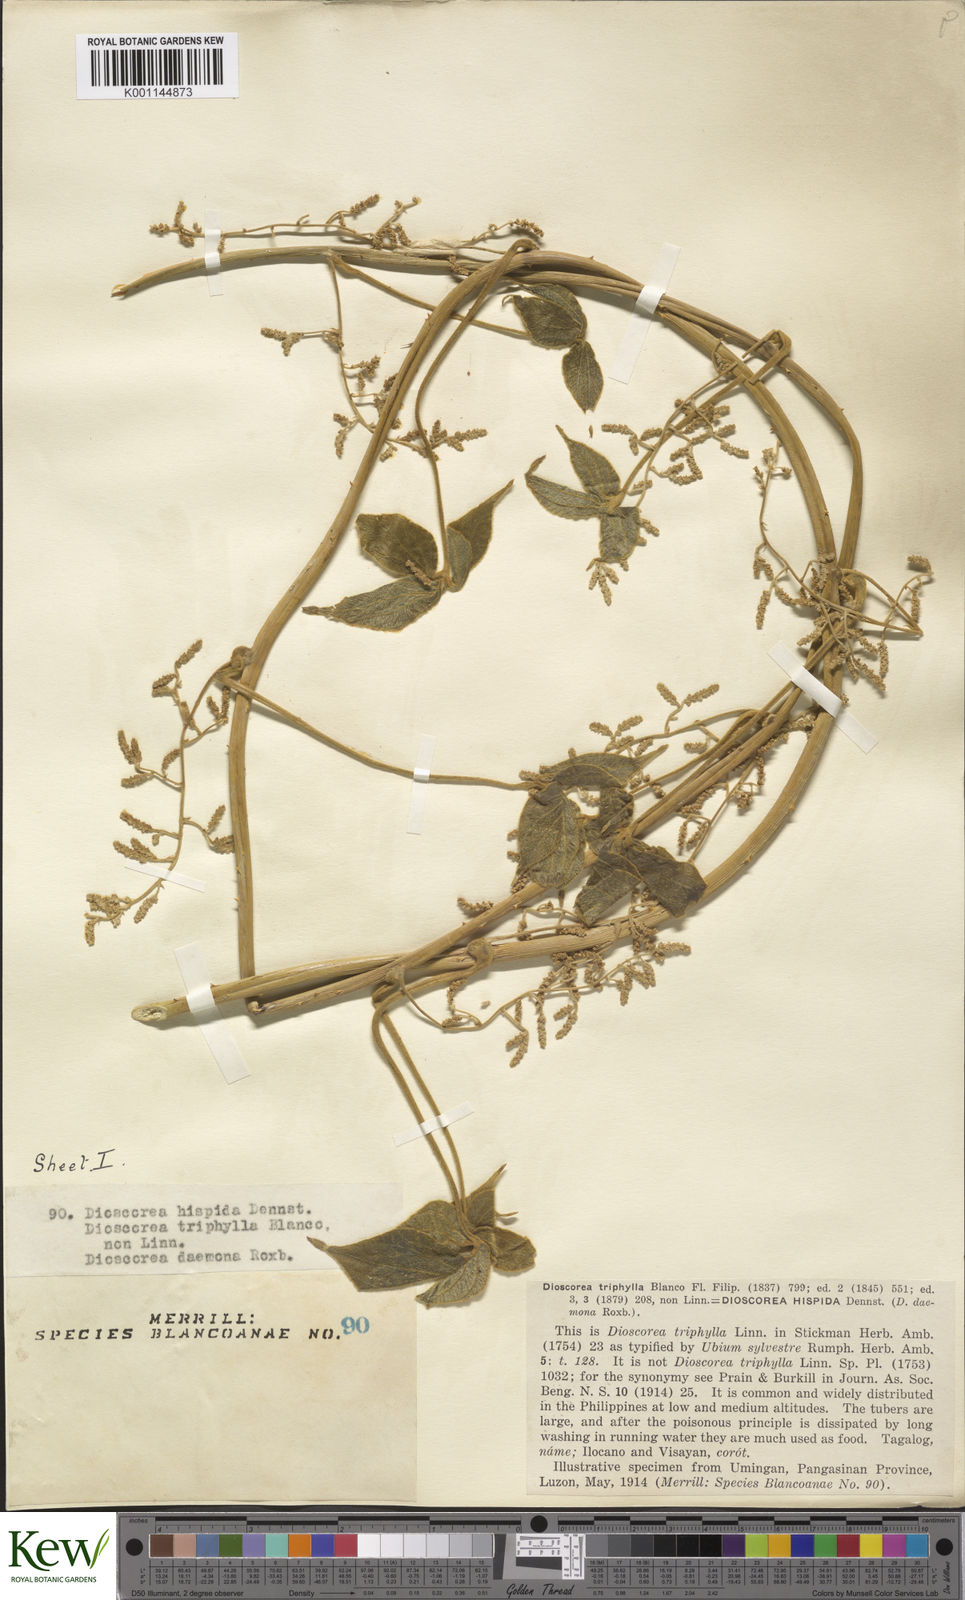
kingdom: Plantae
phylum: Tracheophyta
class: Liliopsida
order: Dioscoreales
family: Dioscoreaceae
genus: Dioscorea
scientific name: Dioscorea hispida
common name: Asiatic bitter yam
